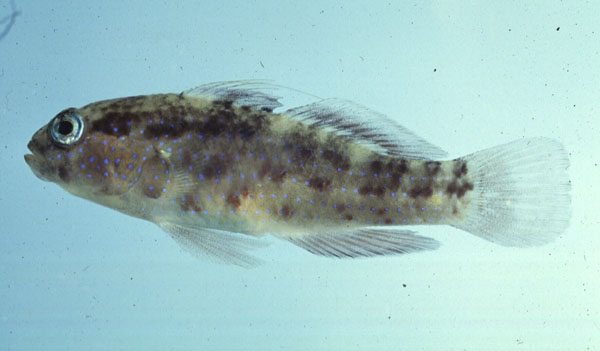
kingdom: Animalia
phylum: Chordata
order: Perciformes
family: Gobiidae
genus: Asterropteryx
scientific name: Asterropteryx semipunctata
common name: Starry goby
